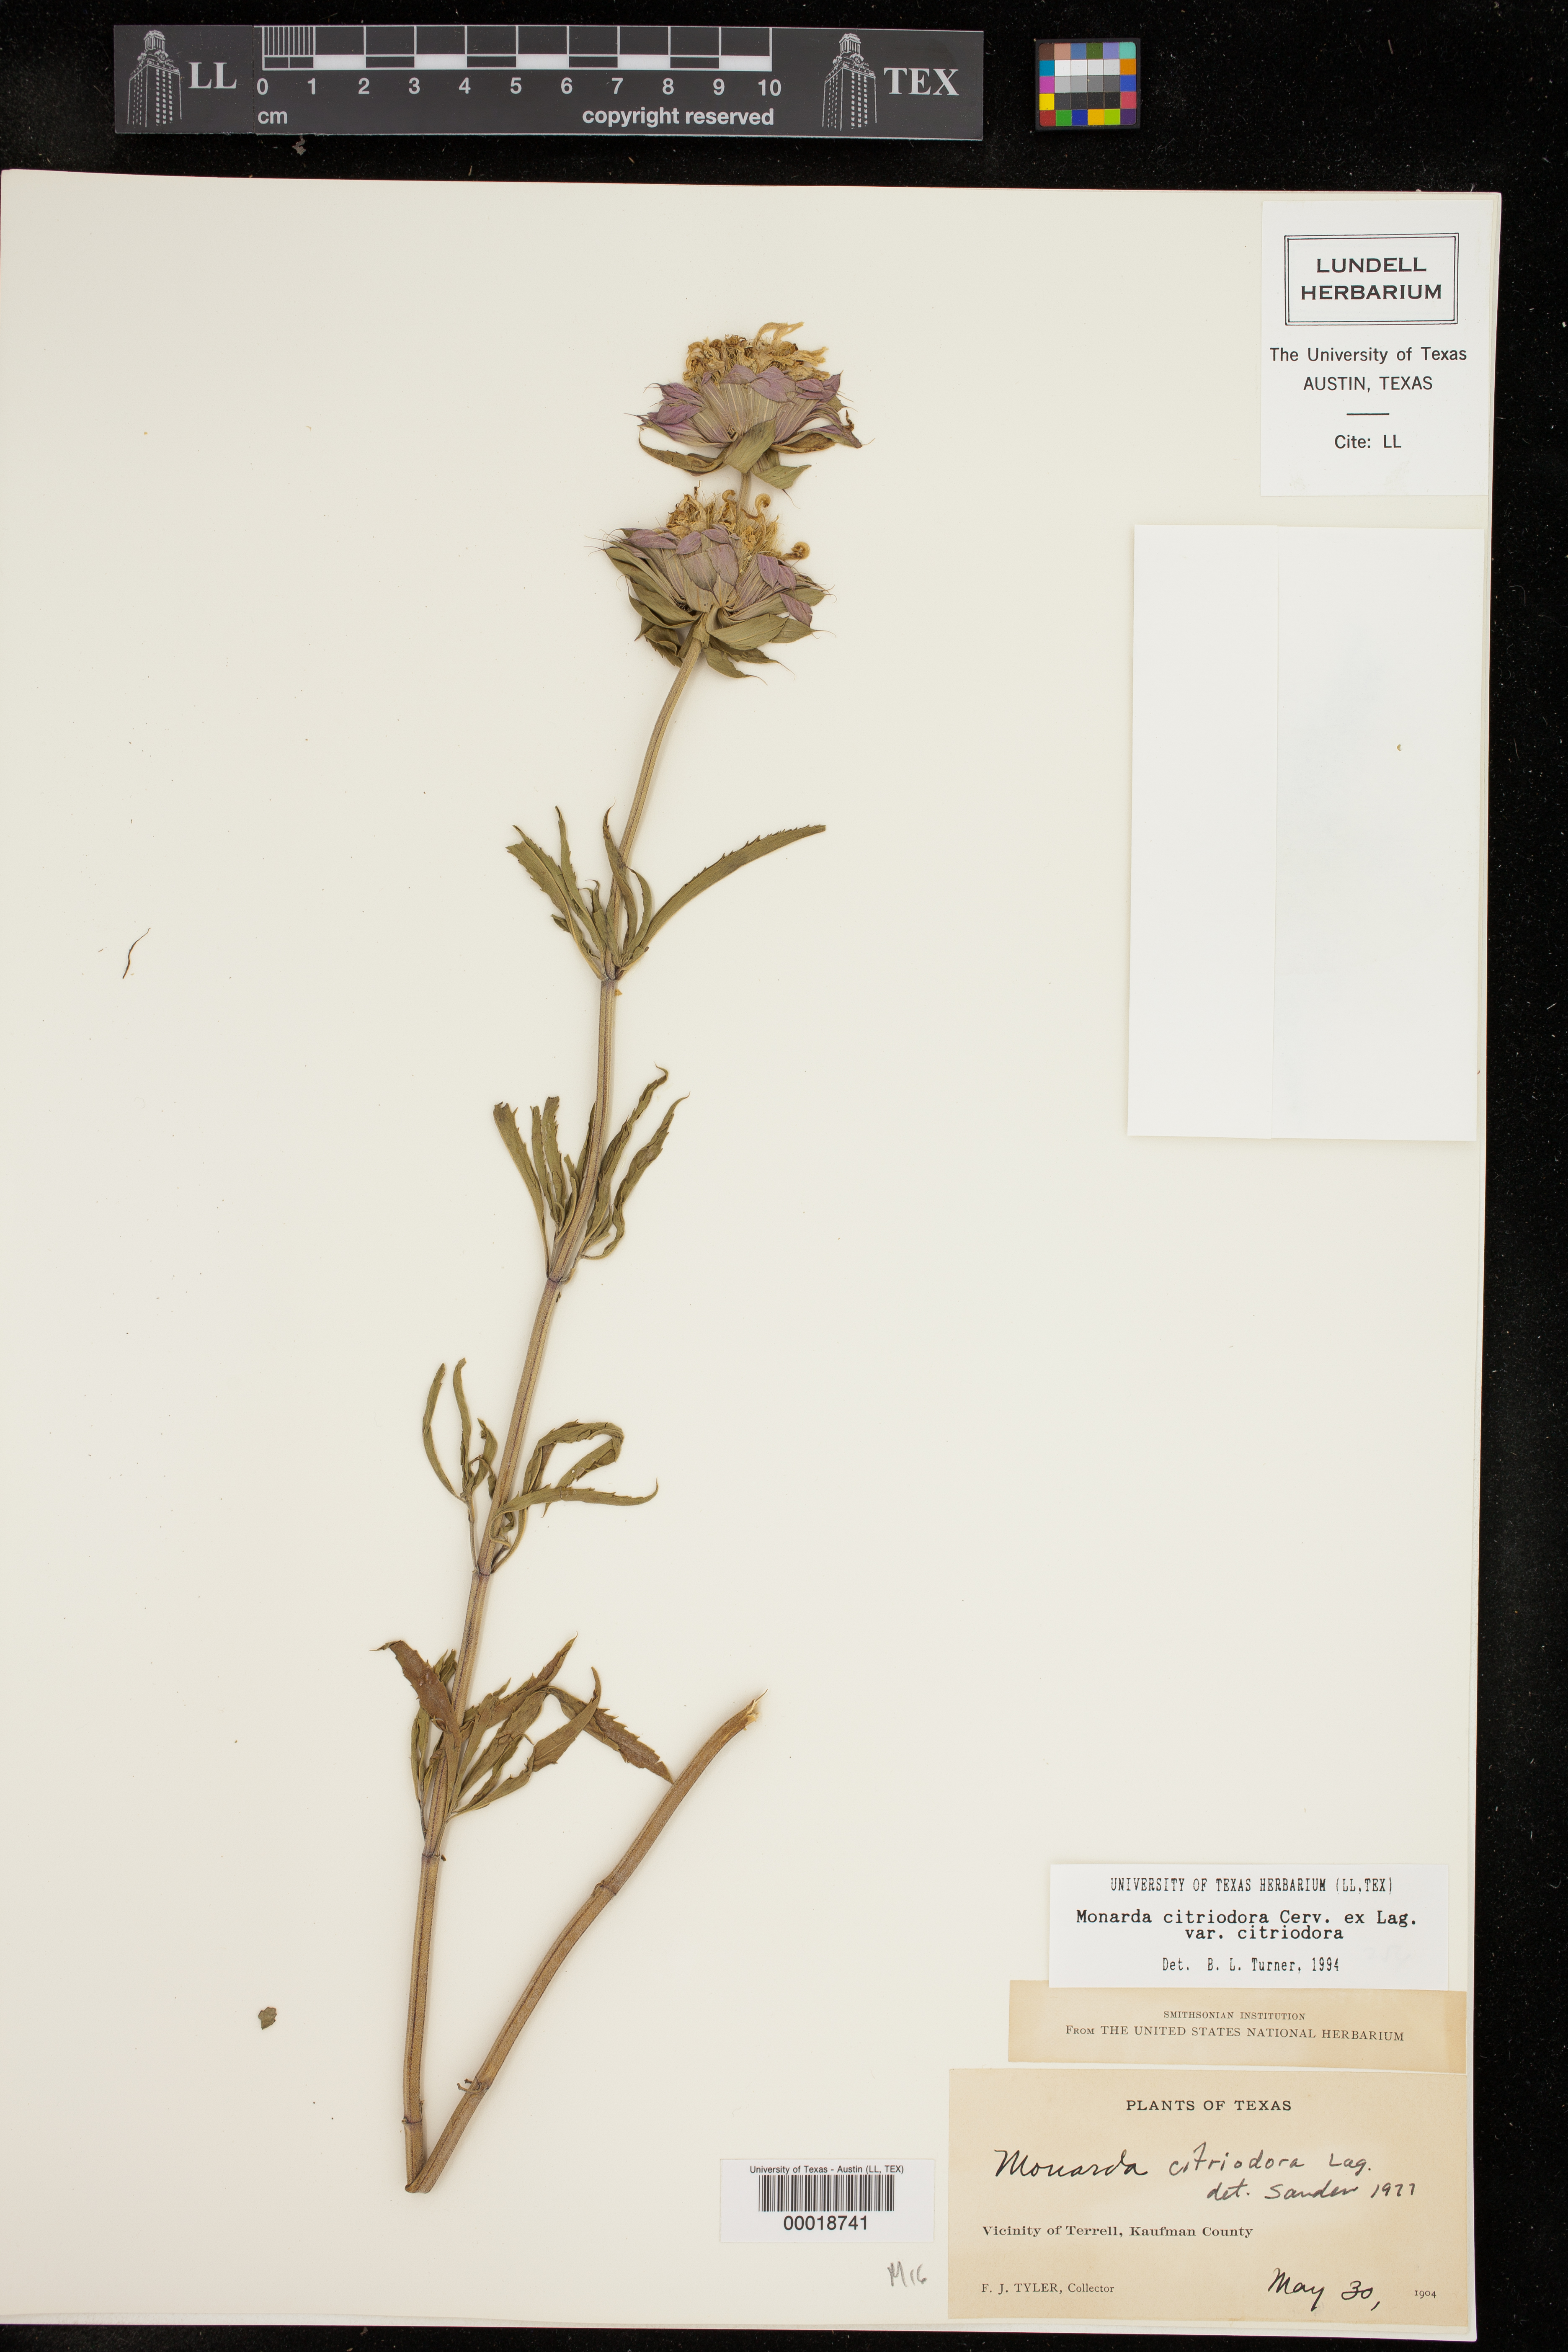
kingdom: Plantae
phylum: Tracheophyta
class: Magnoliopsida
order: Lamiales
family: Lamiaceae
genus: Monarda
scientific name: Monarda citriodora
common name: Lemon beebalm
